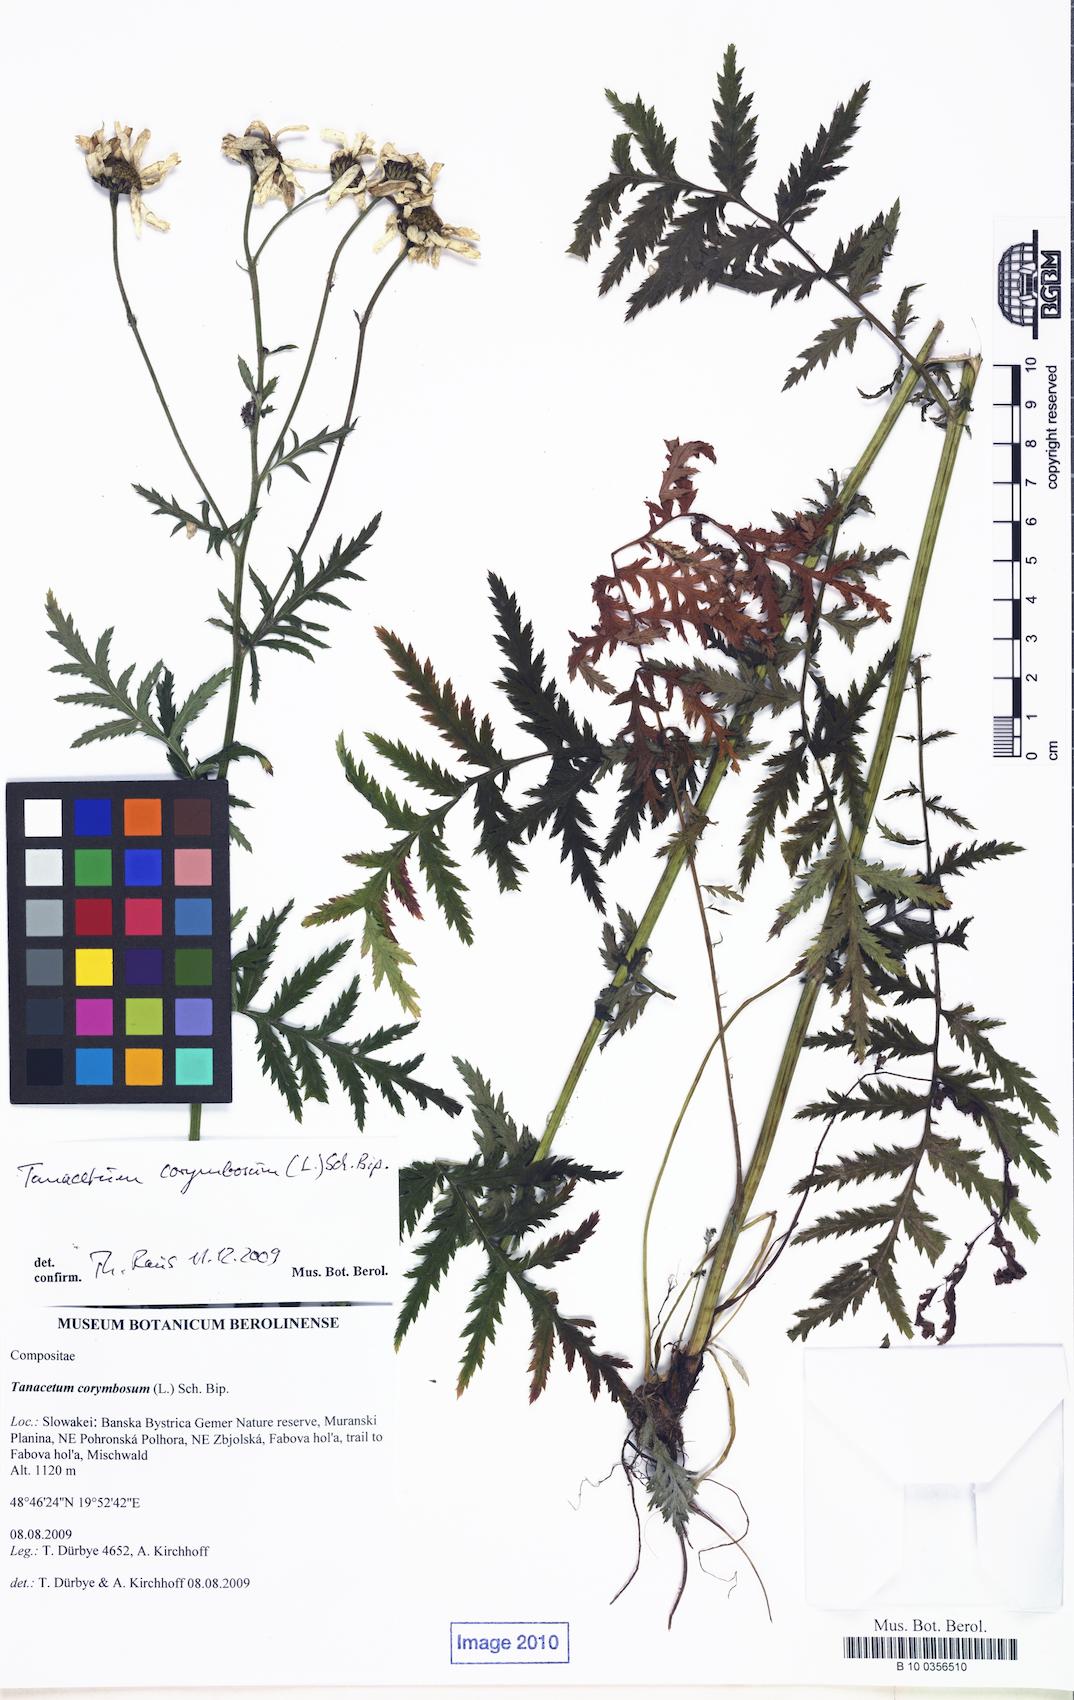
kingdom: Plantae
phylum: Tracheophyta
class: Magnoliopsida
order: Asterales
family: Asteraceae
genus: Tanacetum
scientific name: Tanacetum corymbosum
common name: Scentless feverfew
